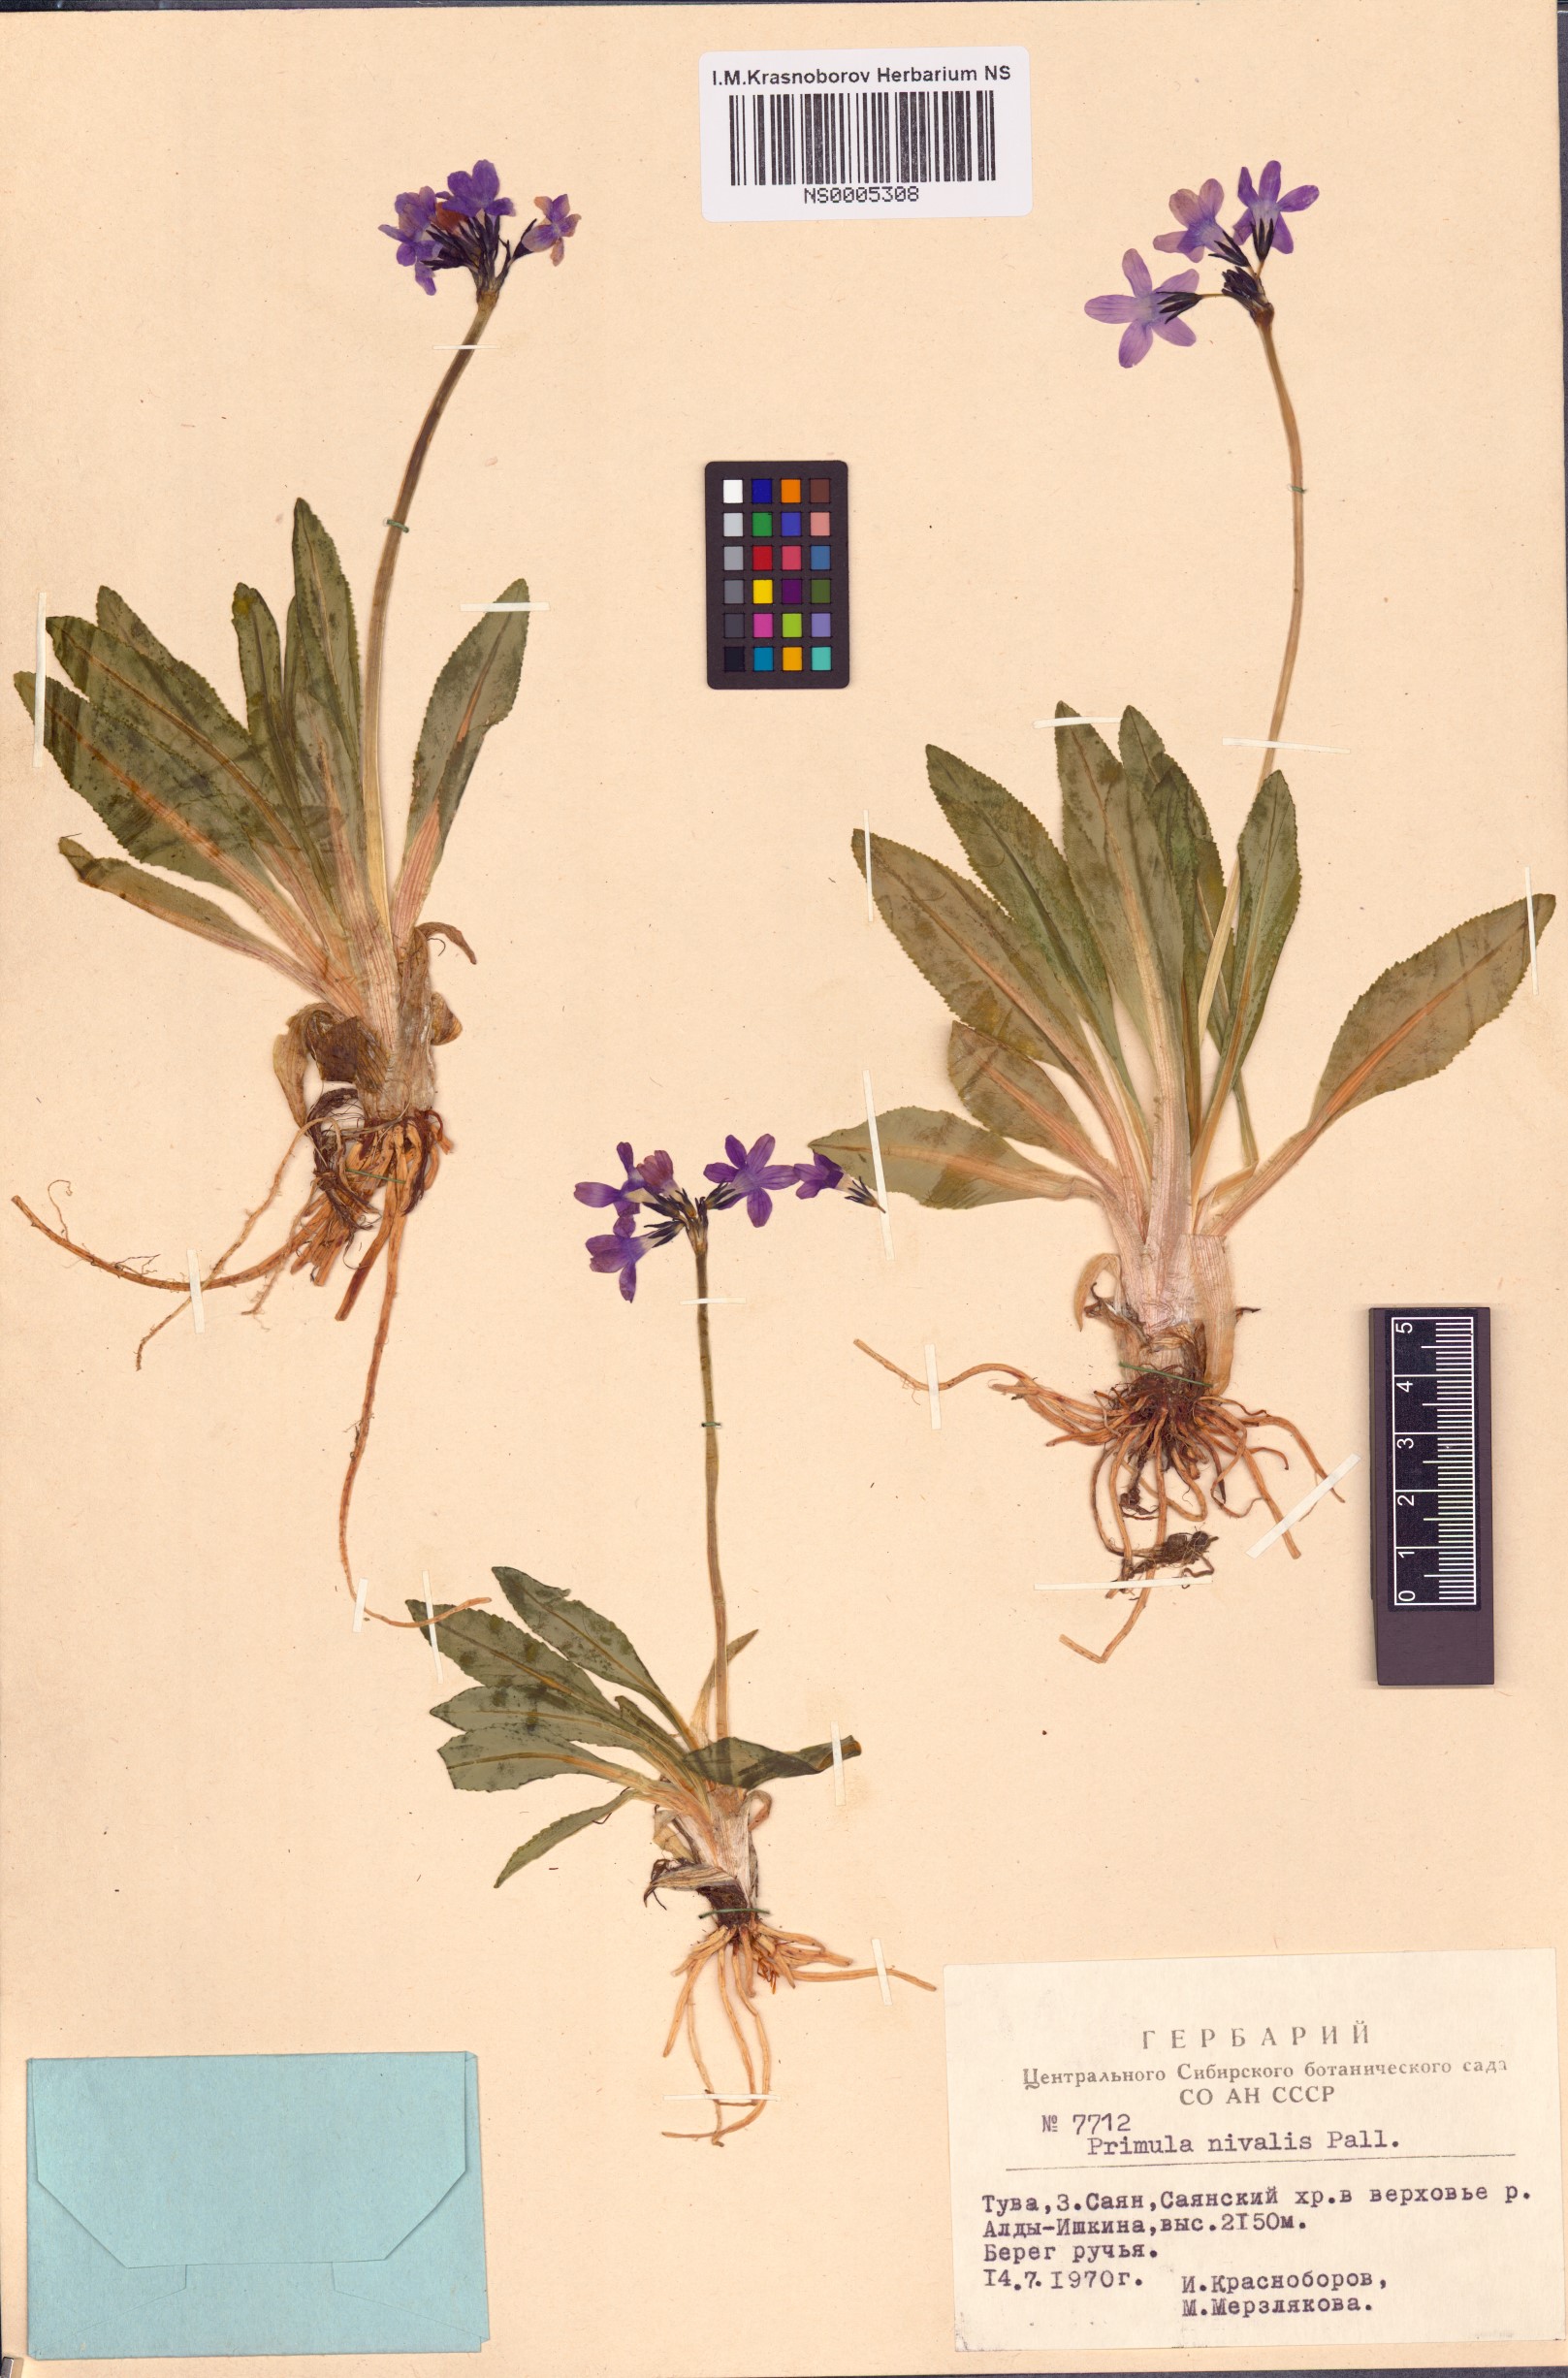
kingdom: Plantae
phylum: Tracheophyta
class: Magnoliopsida
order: Ericales
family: Primulaceae
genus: Primula
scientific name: Primula nivalis
